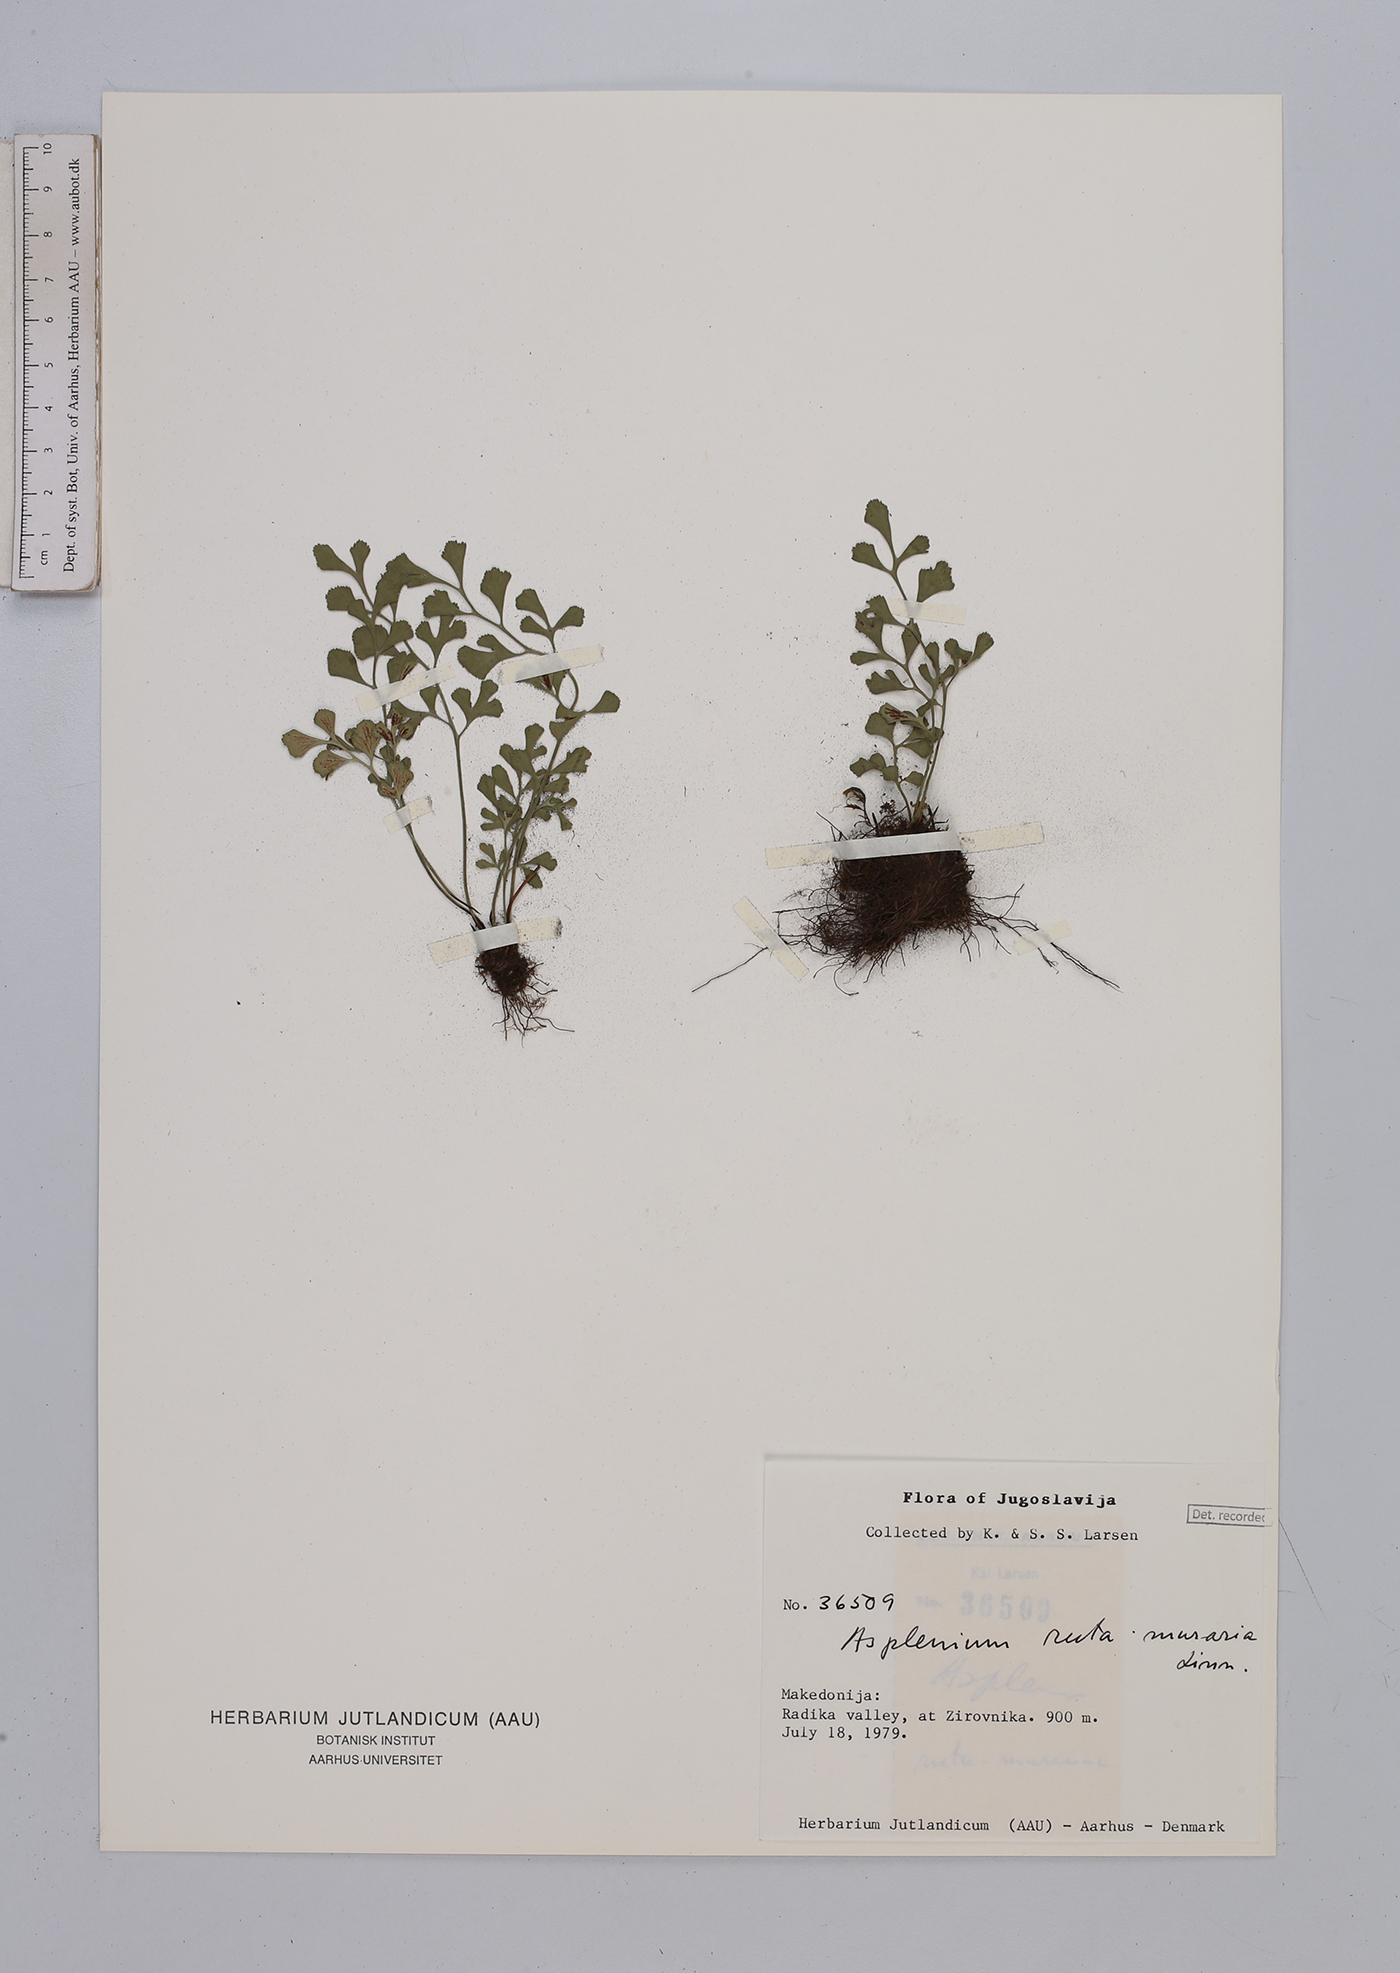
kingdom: Plantae
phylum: Tracheophyta
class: Polypodiopsida
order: Polypodiales
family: Aspleniaceae
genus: Asplenium
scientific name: Asplenium ruta-muraria
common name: Wall-rue
